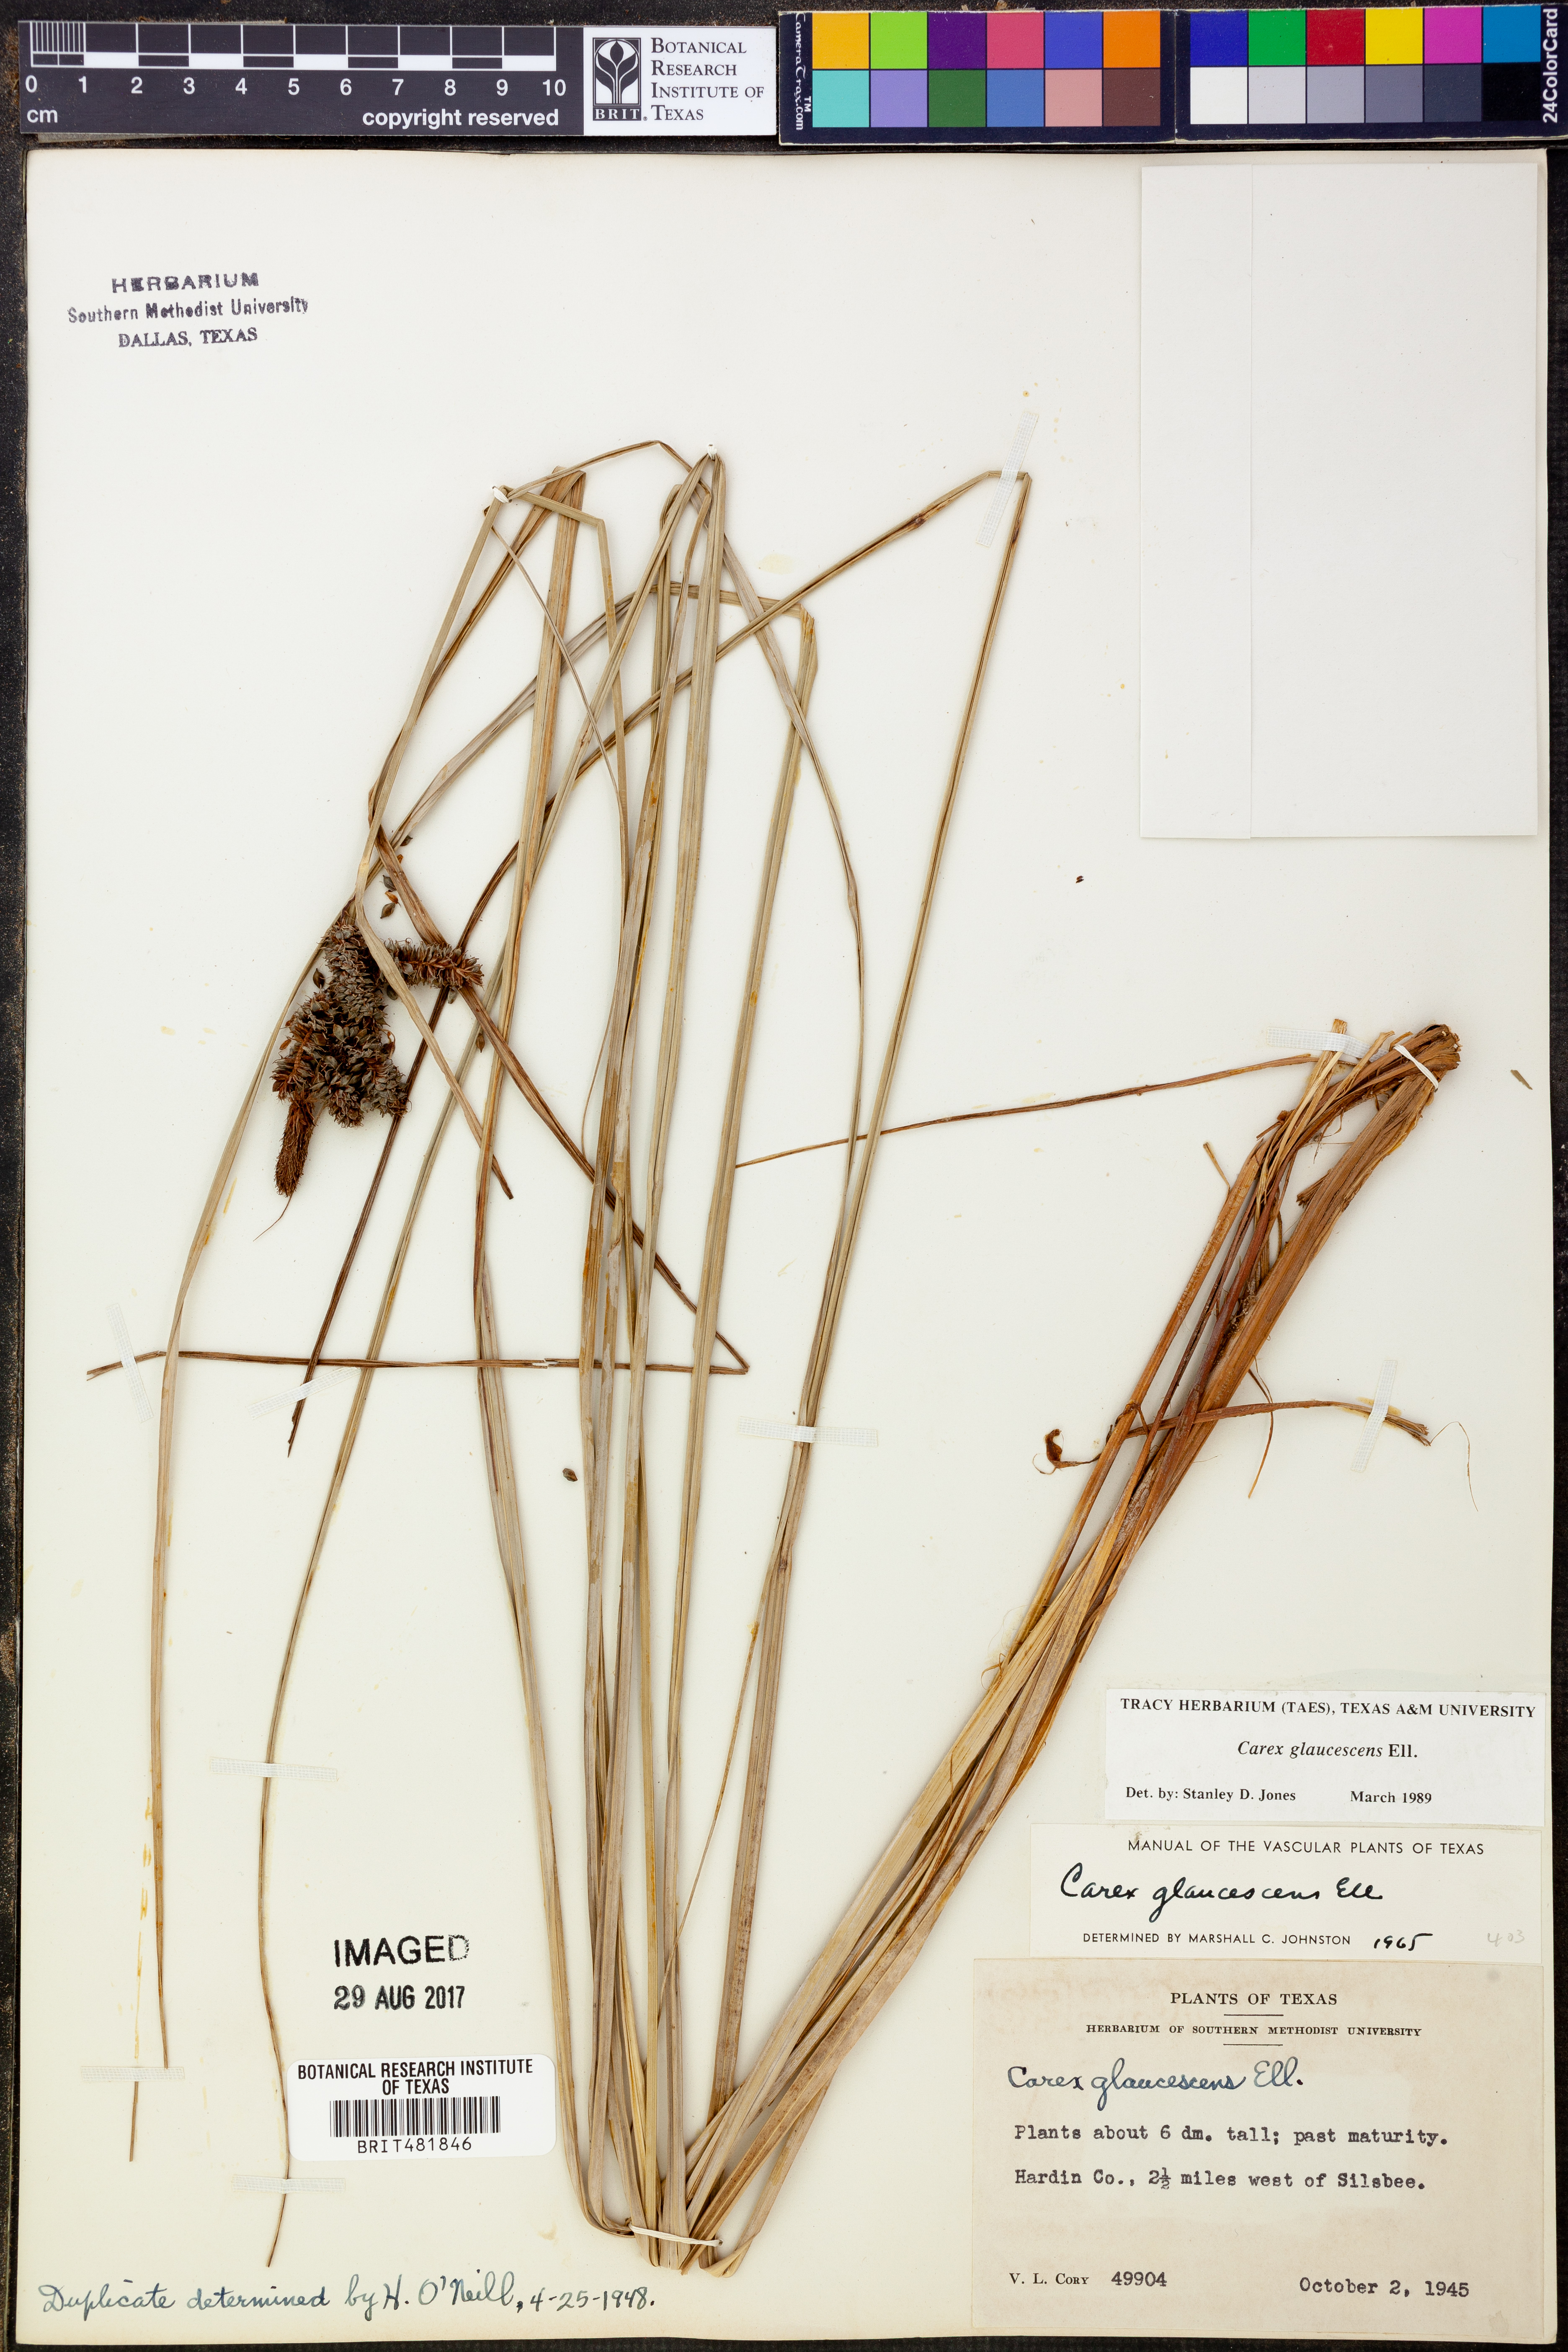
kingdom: Plantae
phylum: Tracheophyta
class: Liliopsida
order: Poales
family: Cyperaceae
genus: Carex
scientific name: Carex glaucescens
